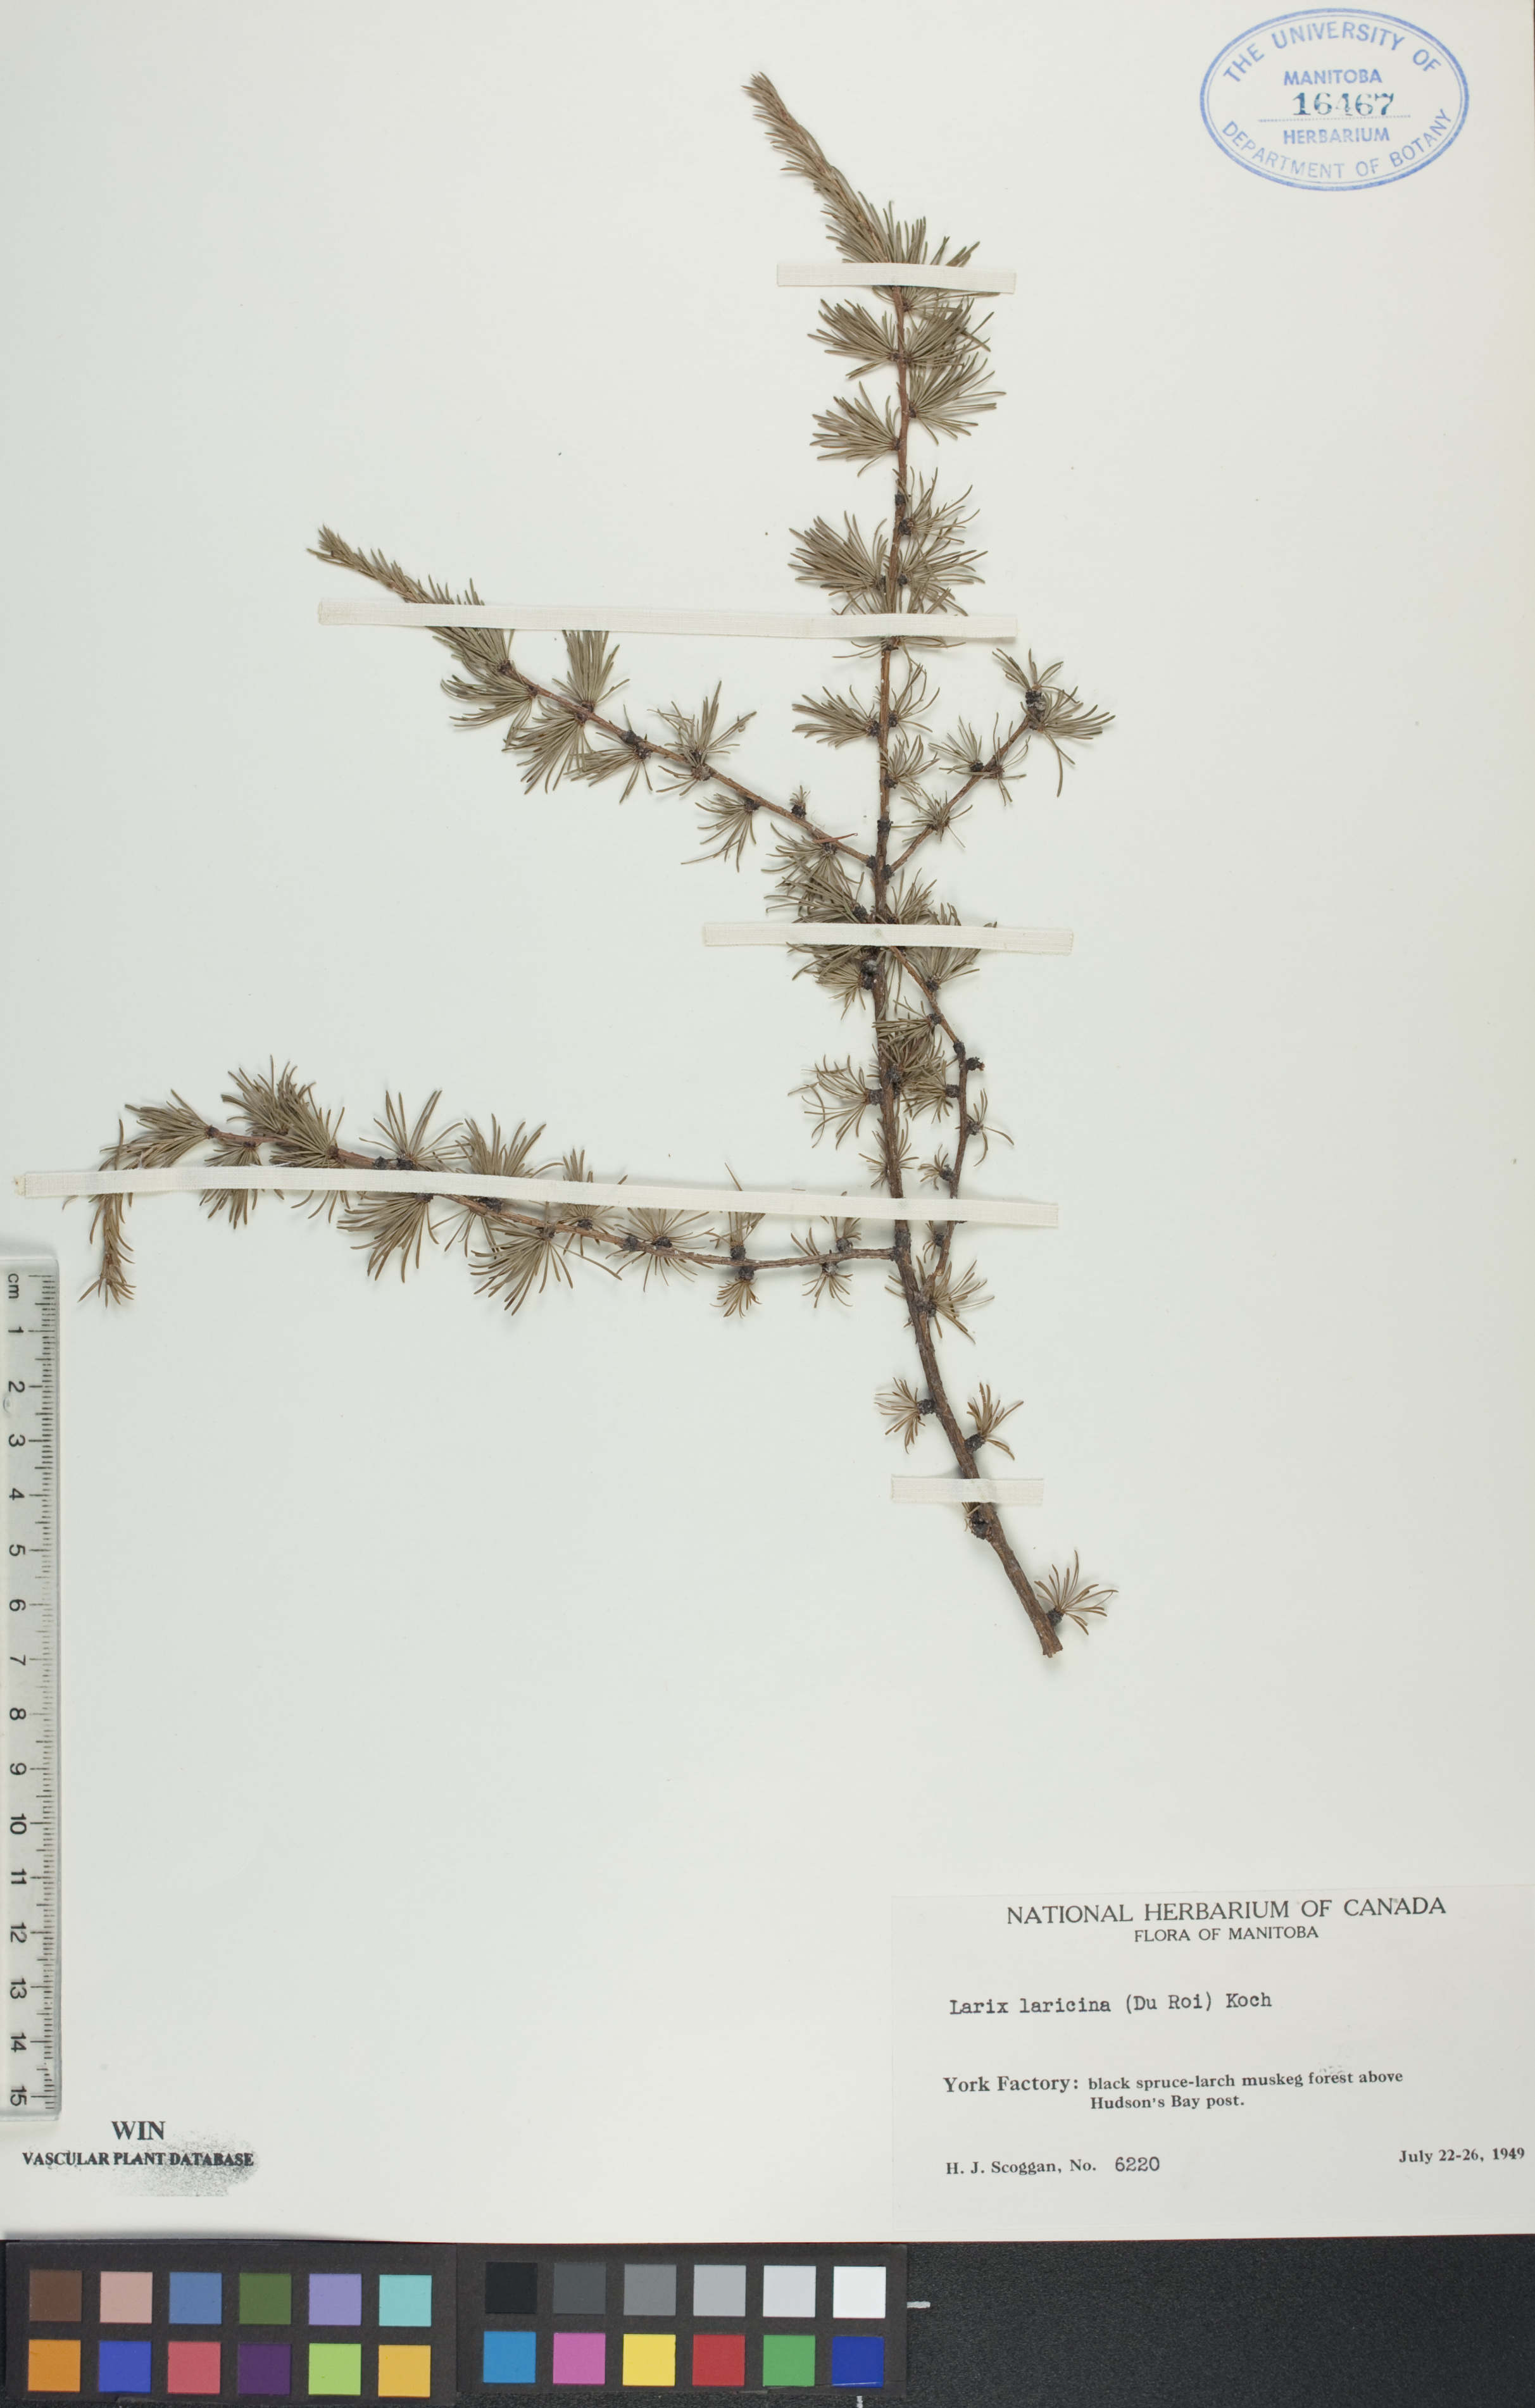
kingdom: Plantae
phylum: Tracheophyta
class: Pinopsida
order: Pinales
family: Pinaceae
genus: Larix
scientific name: Larix laricina
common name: American larch
